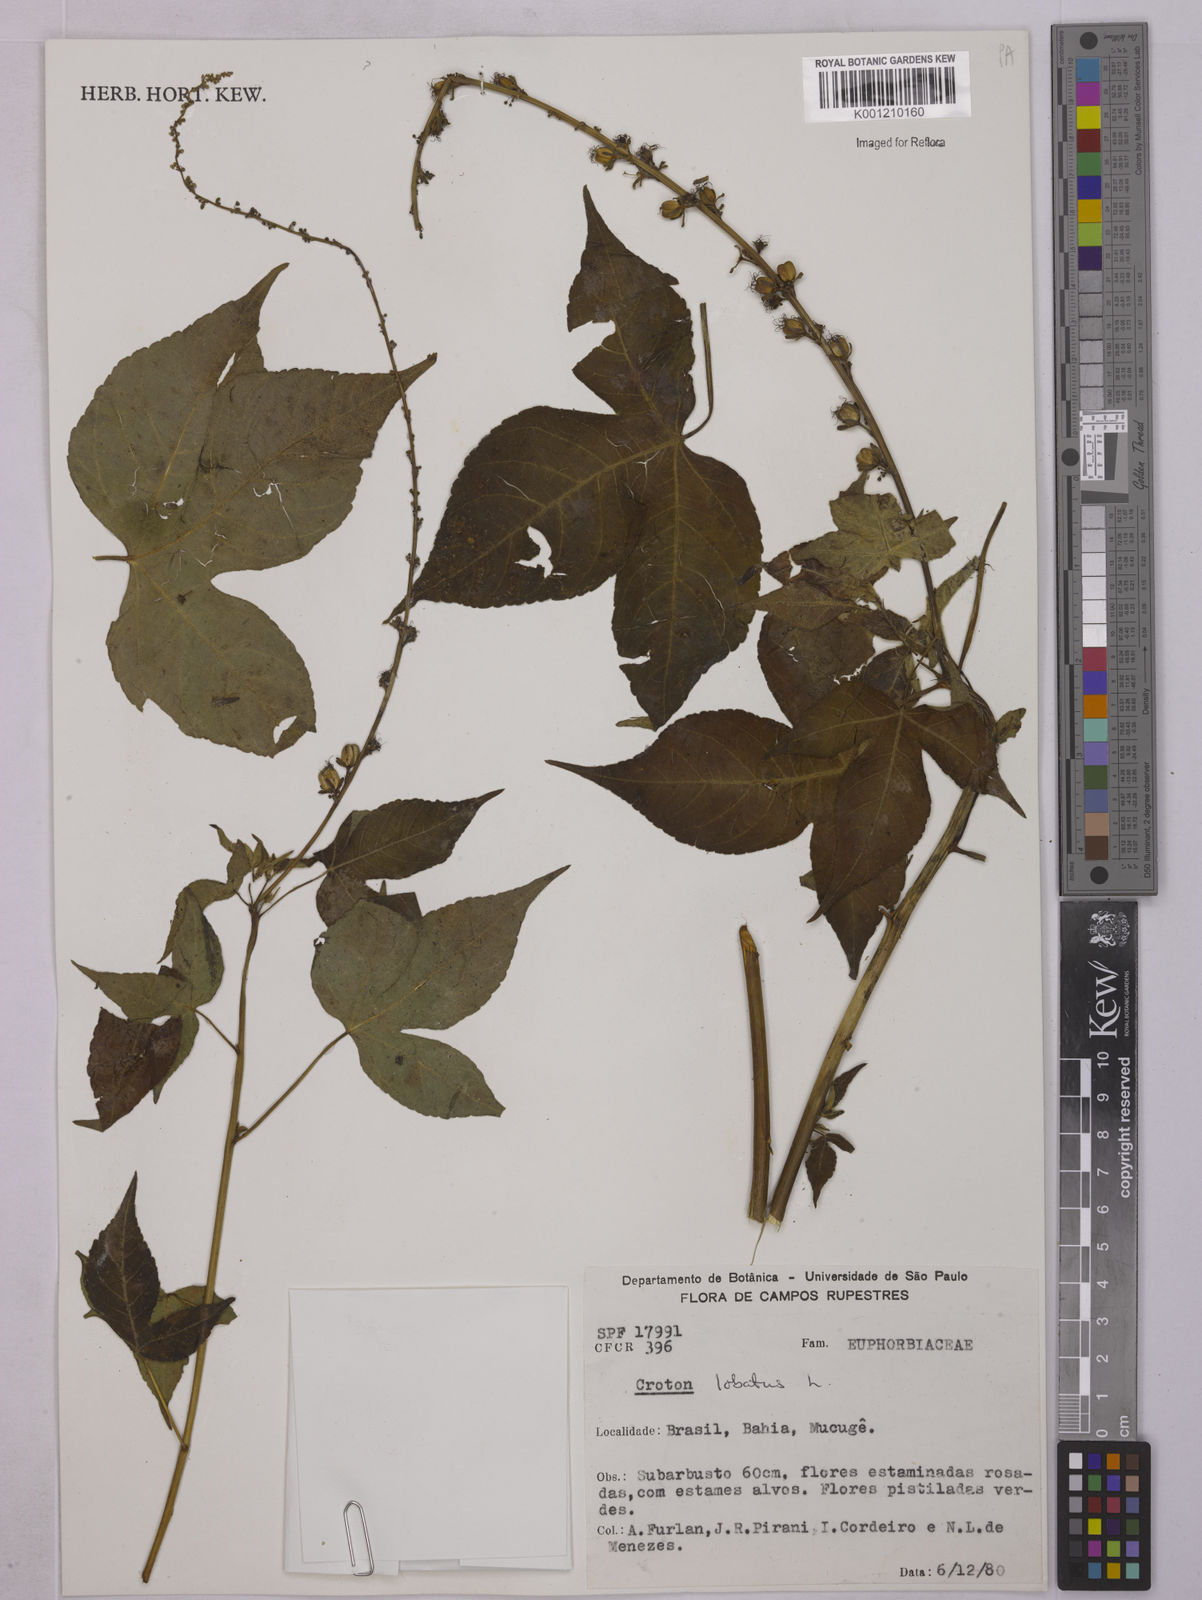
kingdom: Plantae
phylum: Tracheophyta
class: Magnoliopsida
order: Malpighiales
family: Euphorbiaceae
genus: Astraea
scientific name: Astraea lobata
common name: Lobed croton
